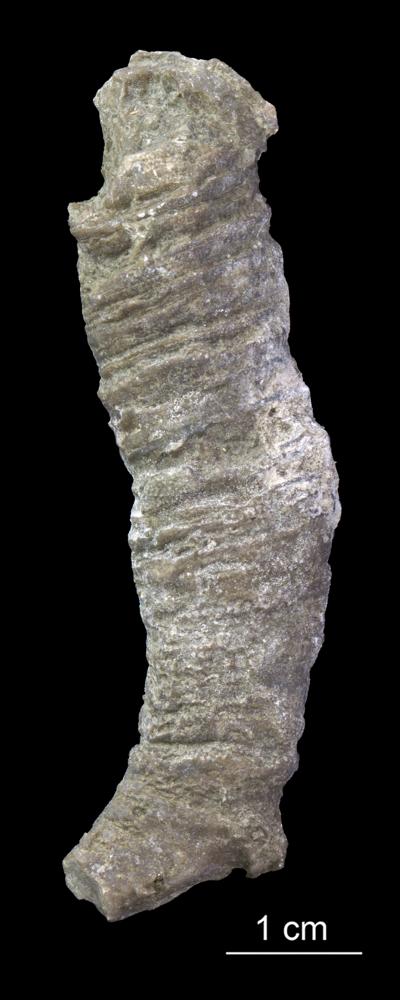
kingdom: Animalia
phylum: Cnidaria
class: Anthozoa
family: Cyathophyllidae
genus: Cystiphyllum
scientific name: Cystiphyllum
